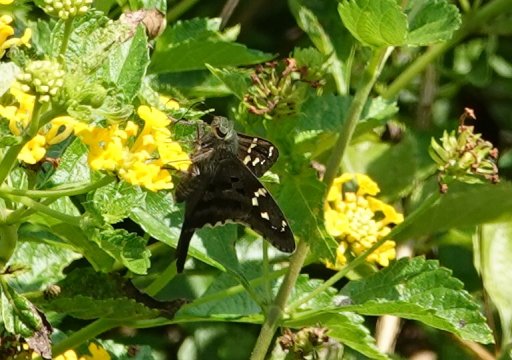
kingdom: Animalia
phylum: Arthropoda
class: Insecta
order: Lepidoptera
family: Hesperiidae
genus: Urbanus
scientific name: Urbanus proteus
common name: Long-tailed Skipper
